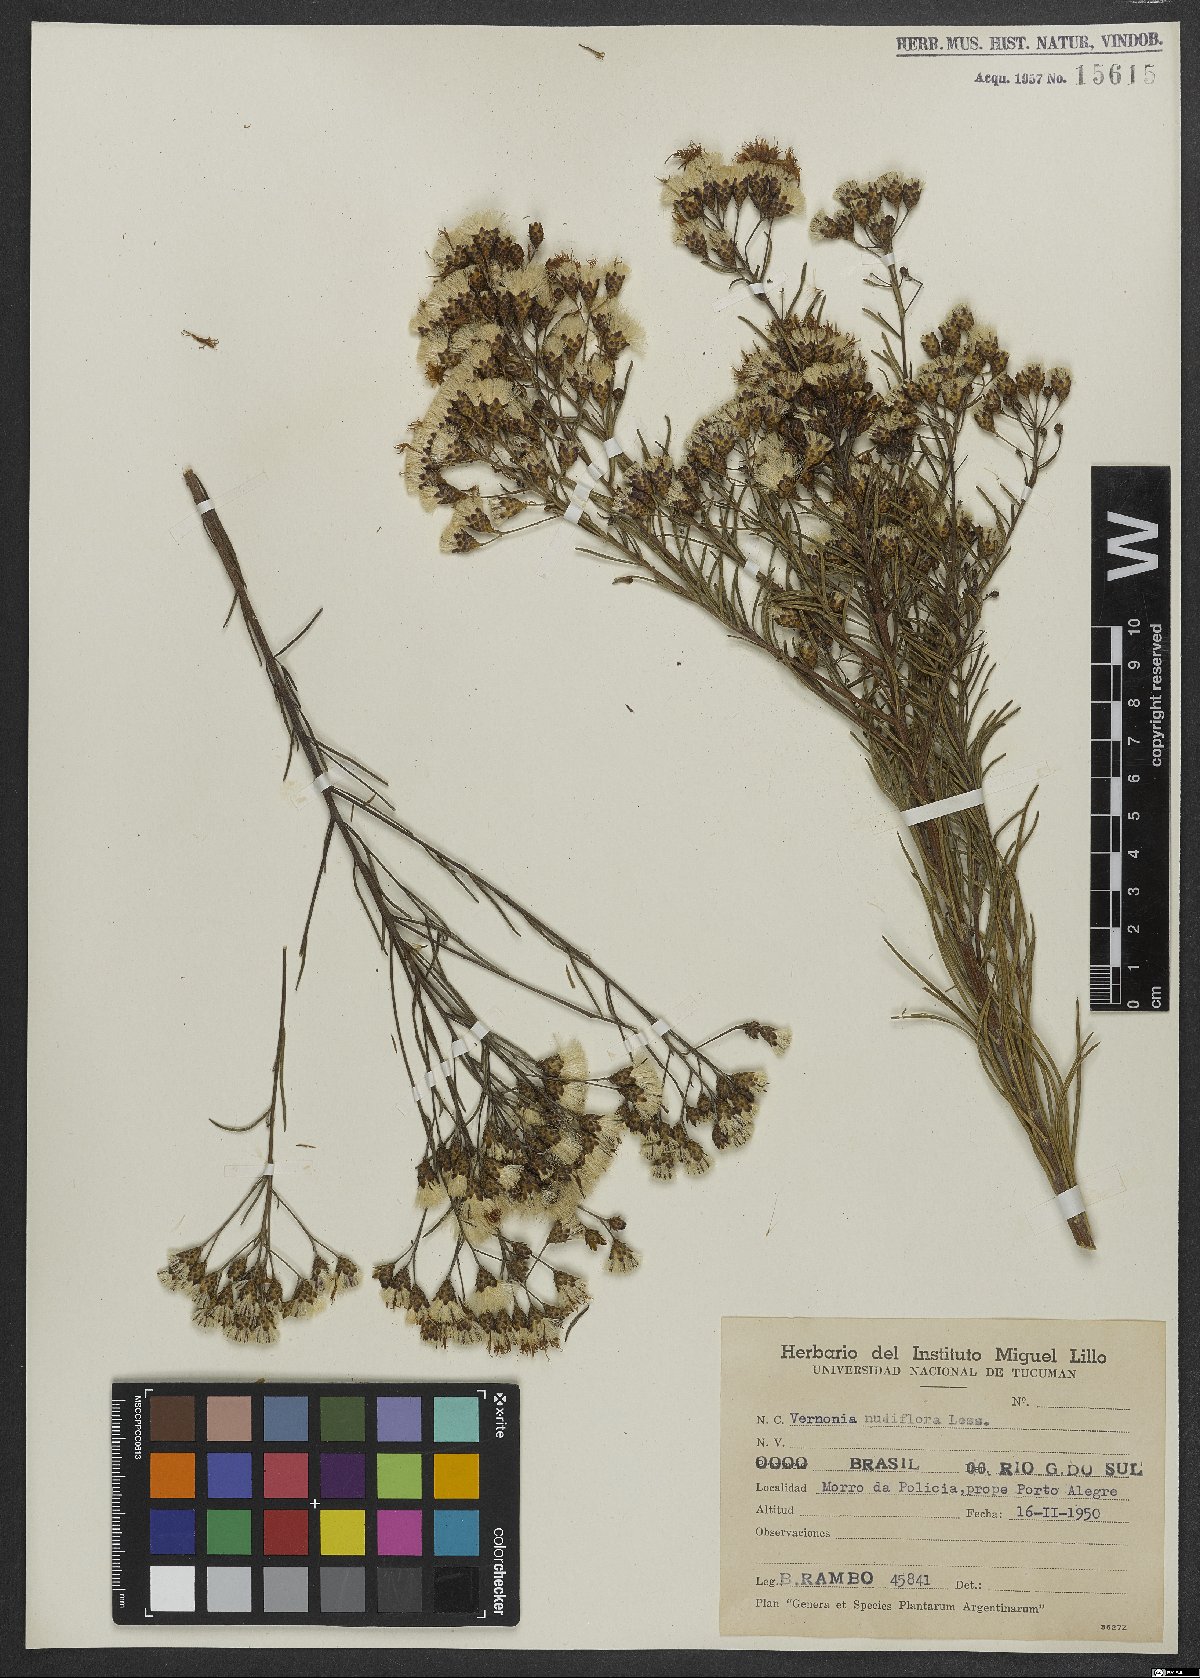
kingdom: Plantae
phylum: Tracheophyta
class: Magnoliopsida
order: Asterales
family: Asteraceae
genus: Vernonanthura
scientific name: Vernonanthura nudiflora
